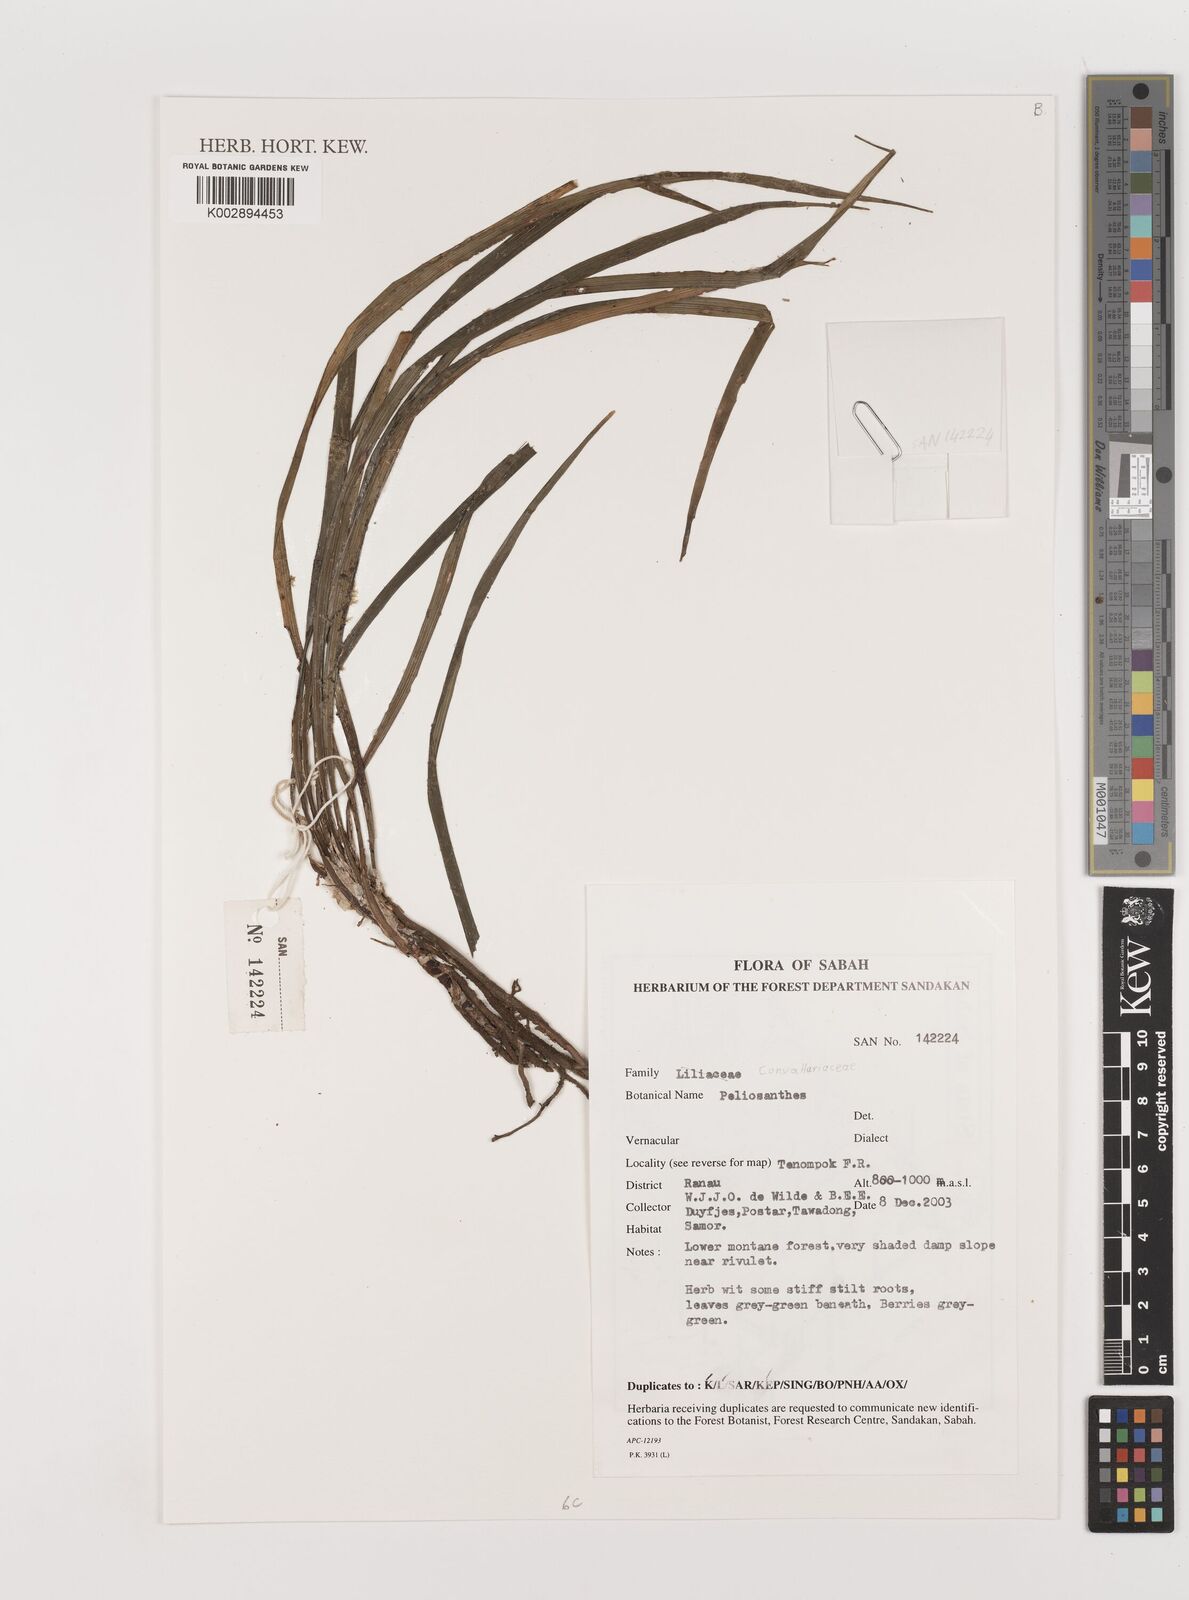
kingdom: Plantae
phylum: Tracheophyta
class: Liliopsida
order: Asparagales
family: Asparagaceae
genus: Peliosanthes
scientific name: Peliosanthes
